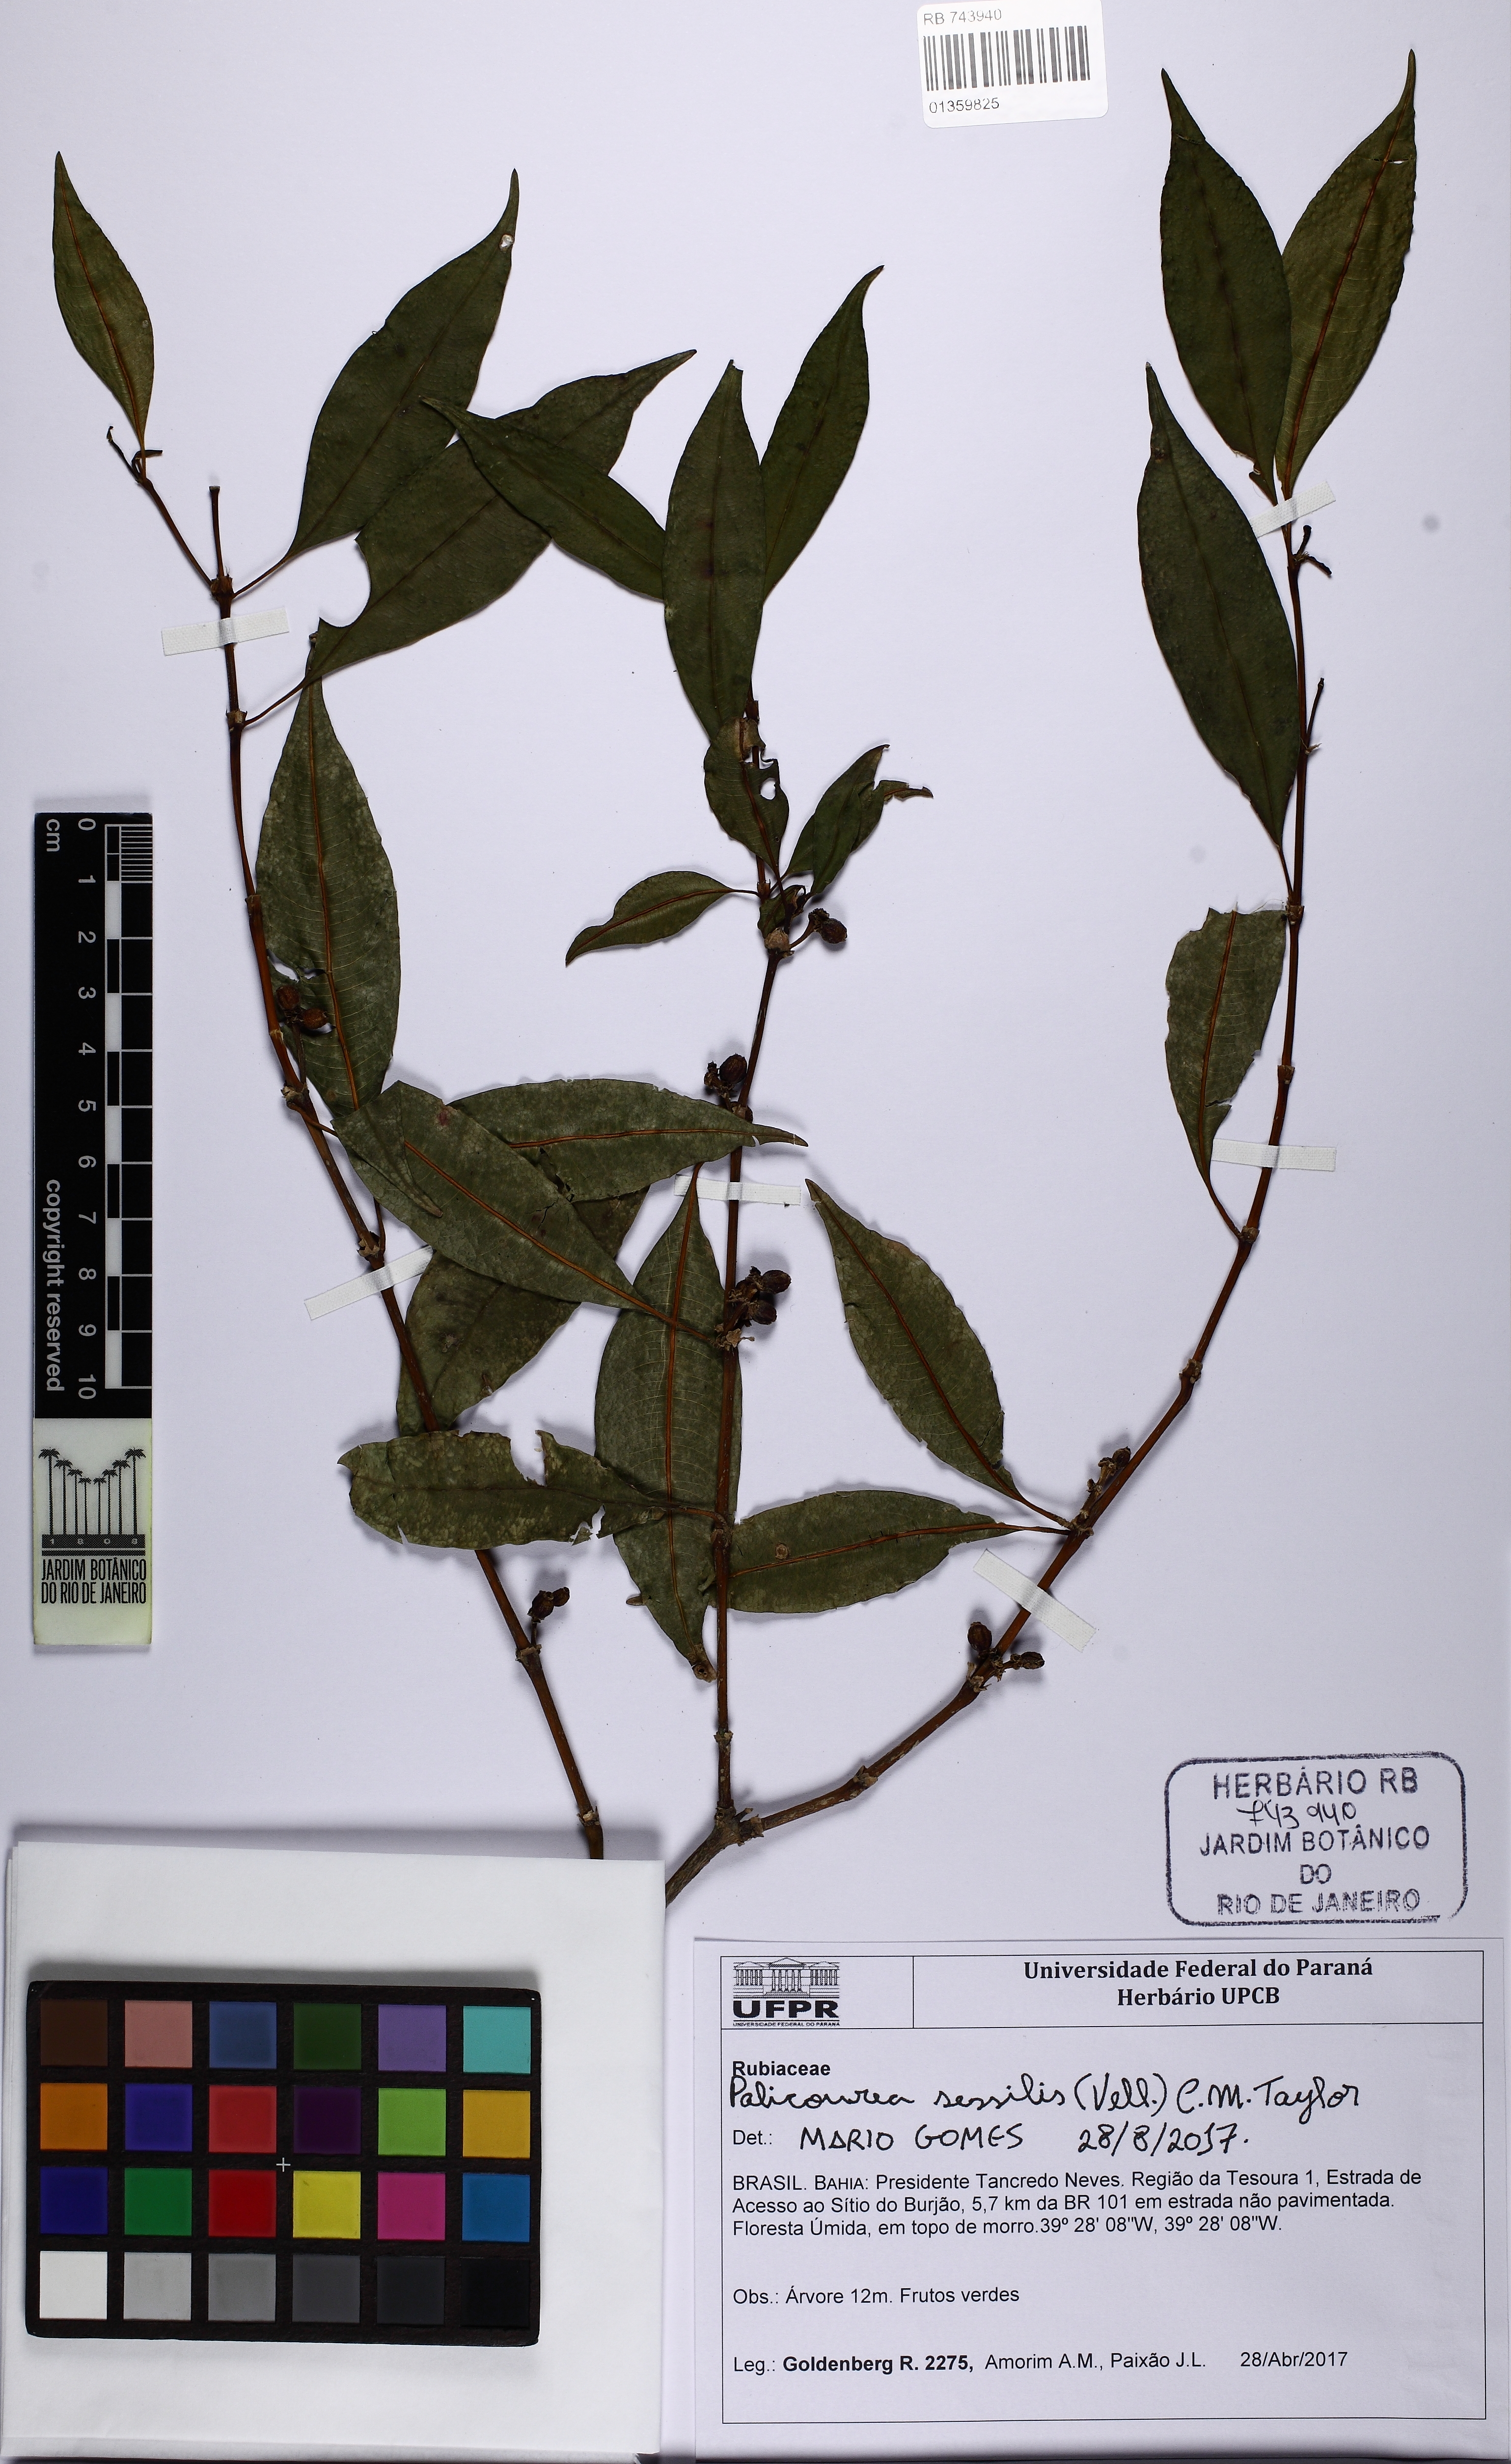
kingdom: Plantae
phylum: Tracheophyta
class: Magnoliopsida
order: Gentianales
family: Rubiaceae
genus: Palicourea
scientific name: Palicourea sessilis
